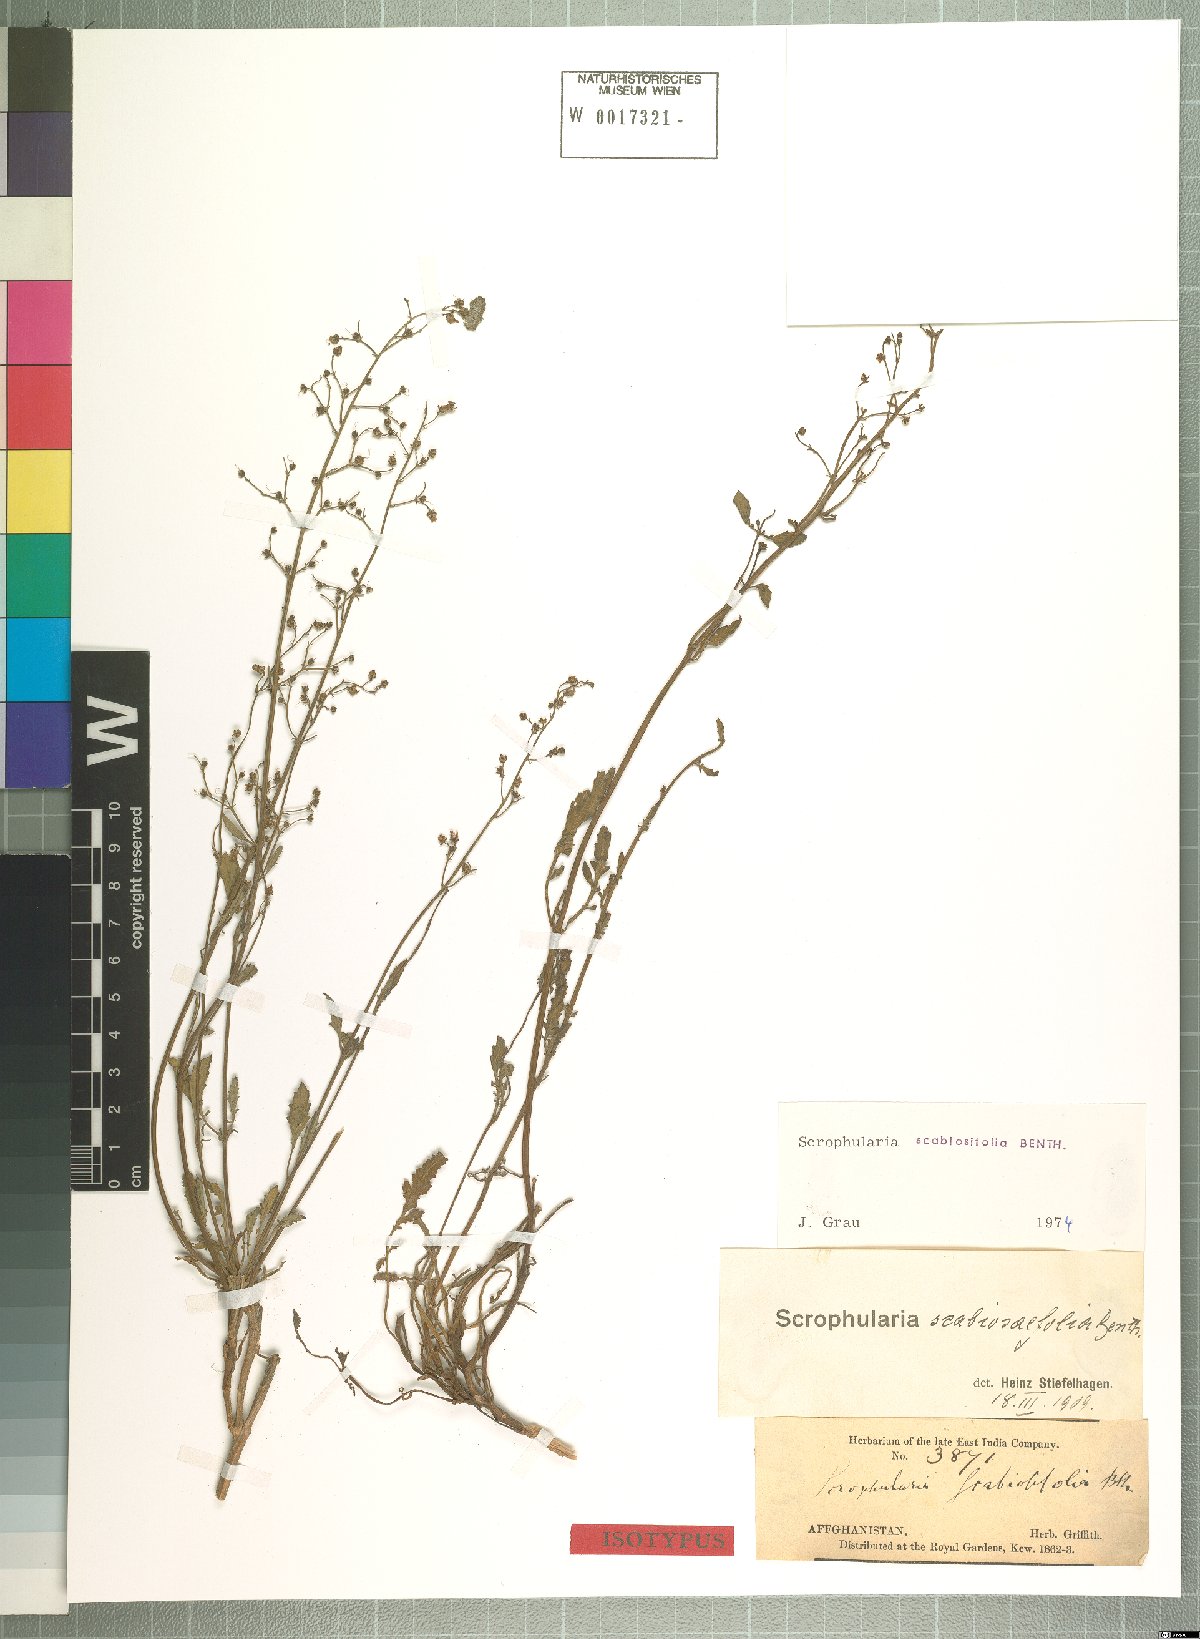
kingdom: Plantae
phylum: Tracheophyta
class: Magnoliopsida
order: Lamiales
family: Scrophulariaceae
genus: Scrophularia
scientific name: Scrophularia scabiosifolia
